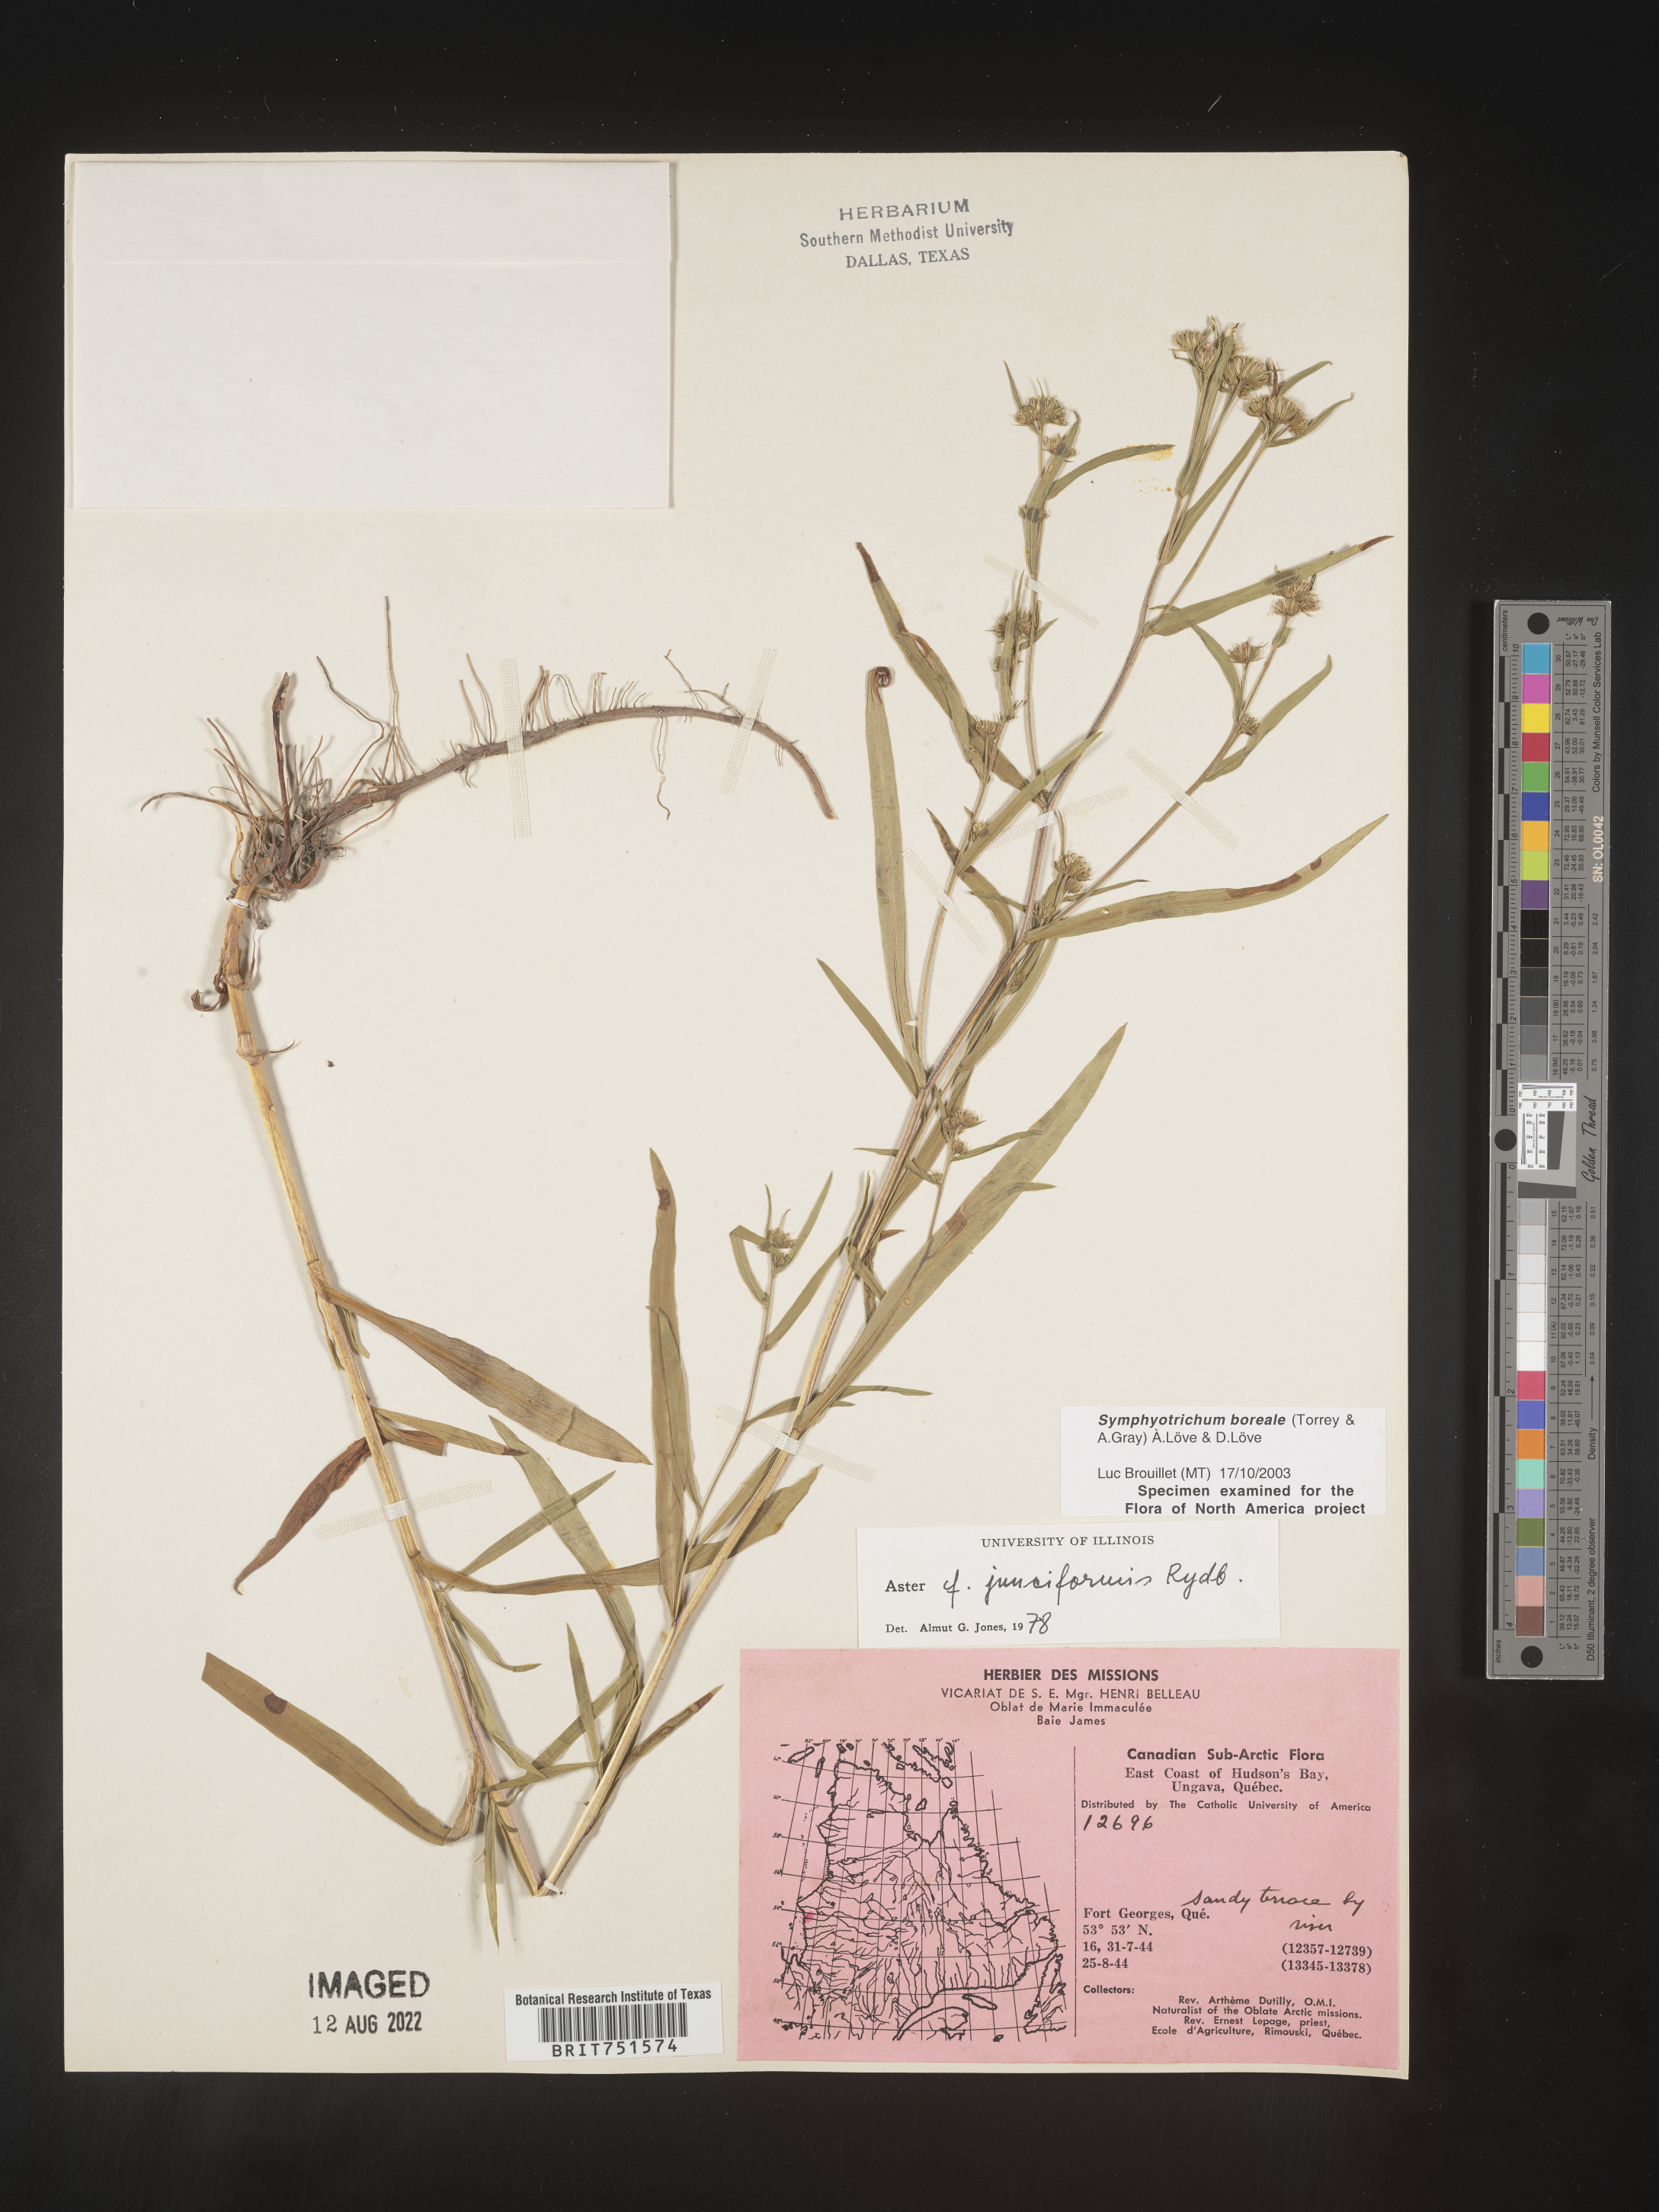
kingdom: Plantae
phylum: Tracheophyta
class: Magnoliopsida
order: Asterales
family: Asteraceae
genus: Symphyotrichum
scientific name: Symphyotrichum boreale
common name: Northern bog aster
